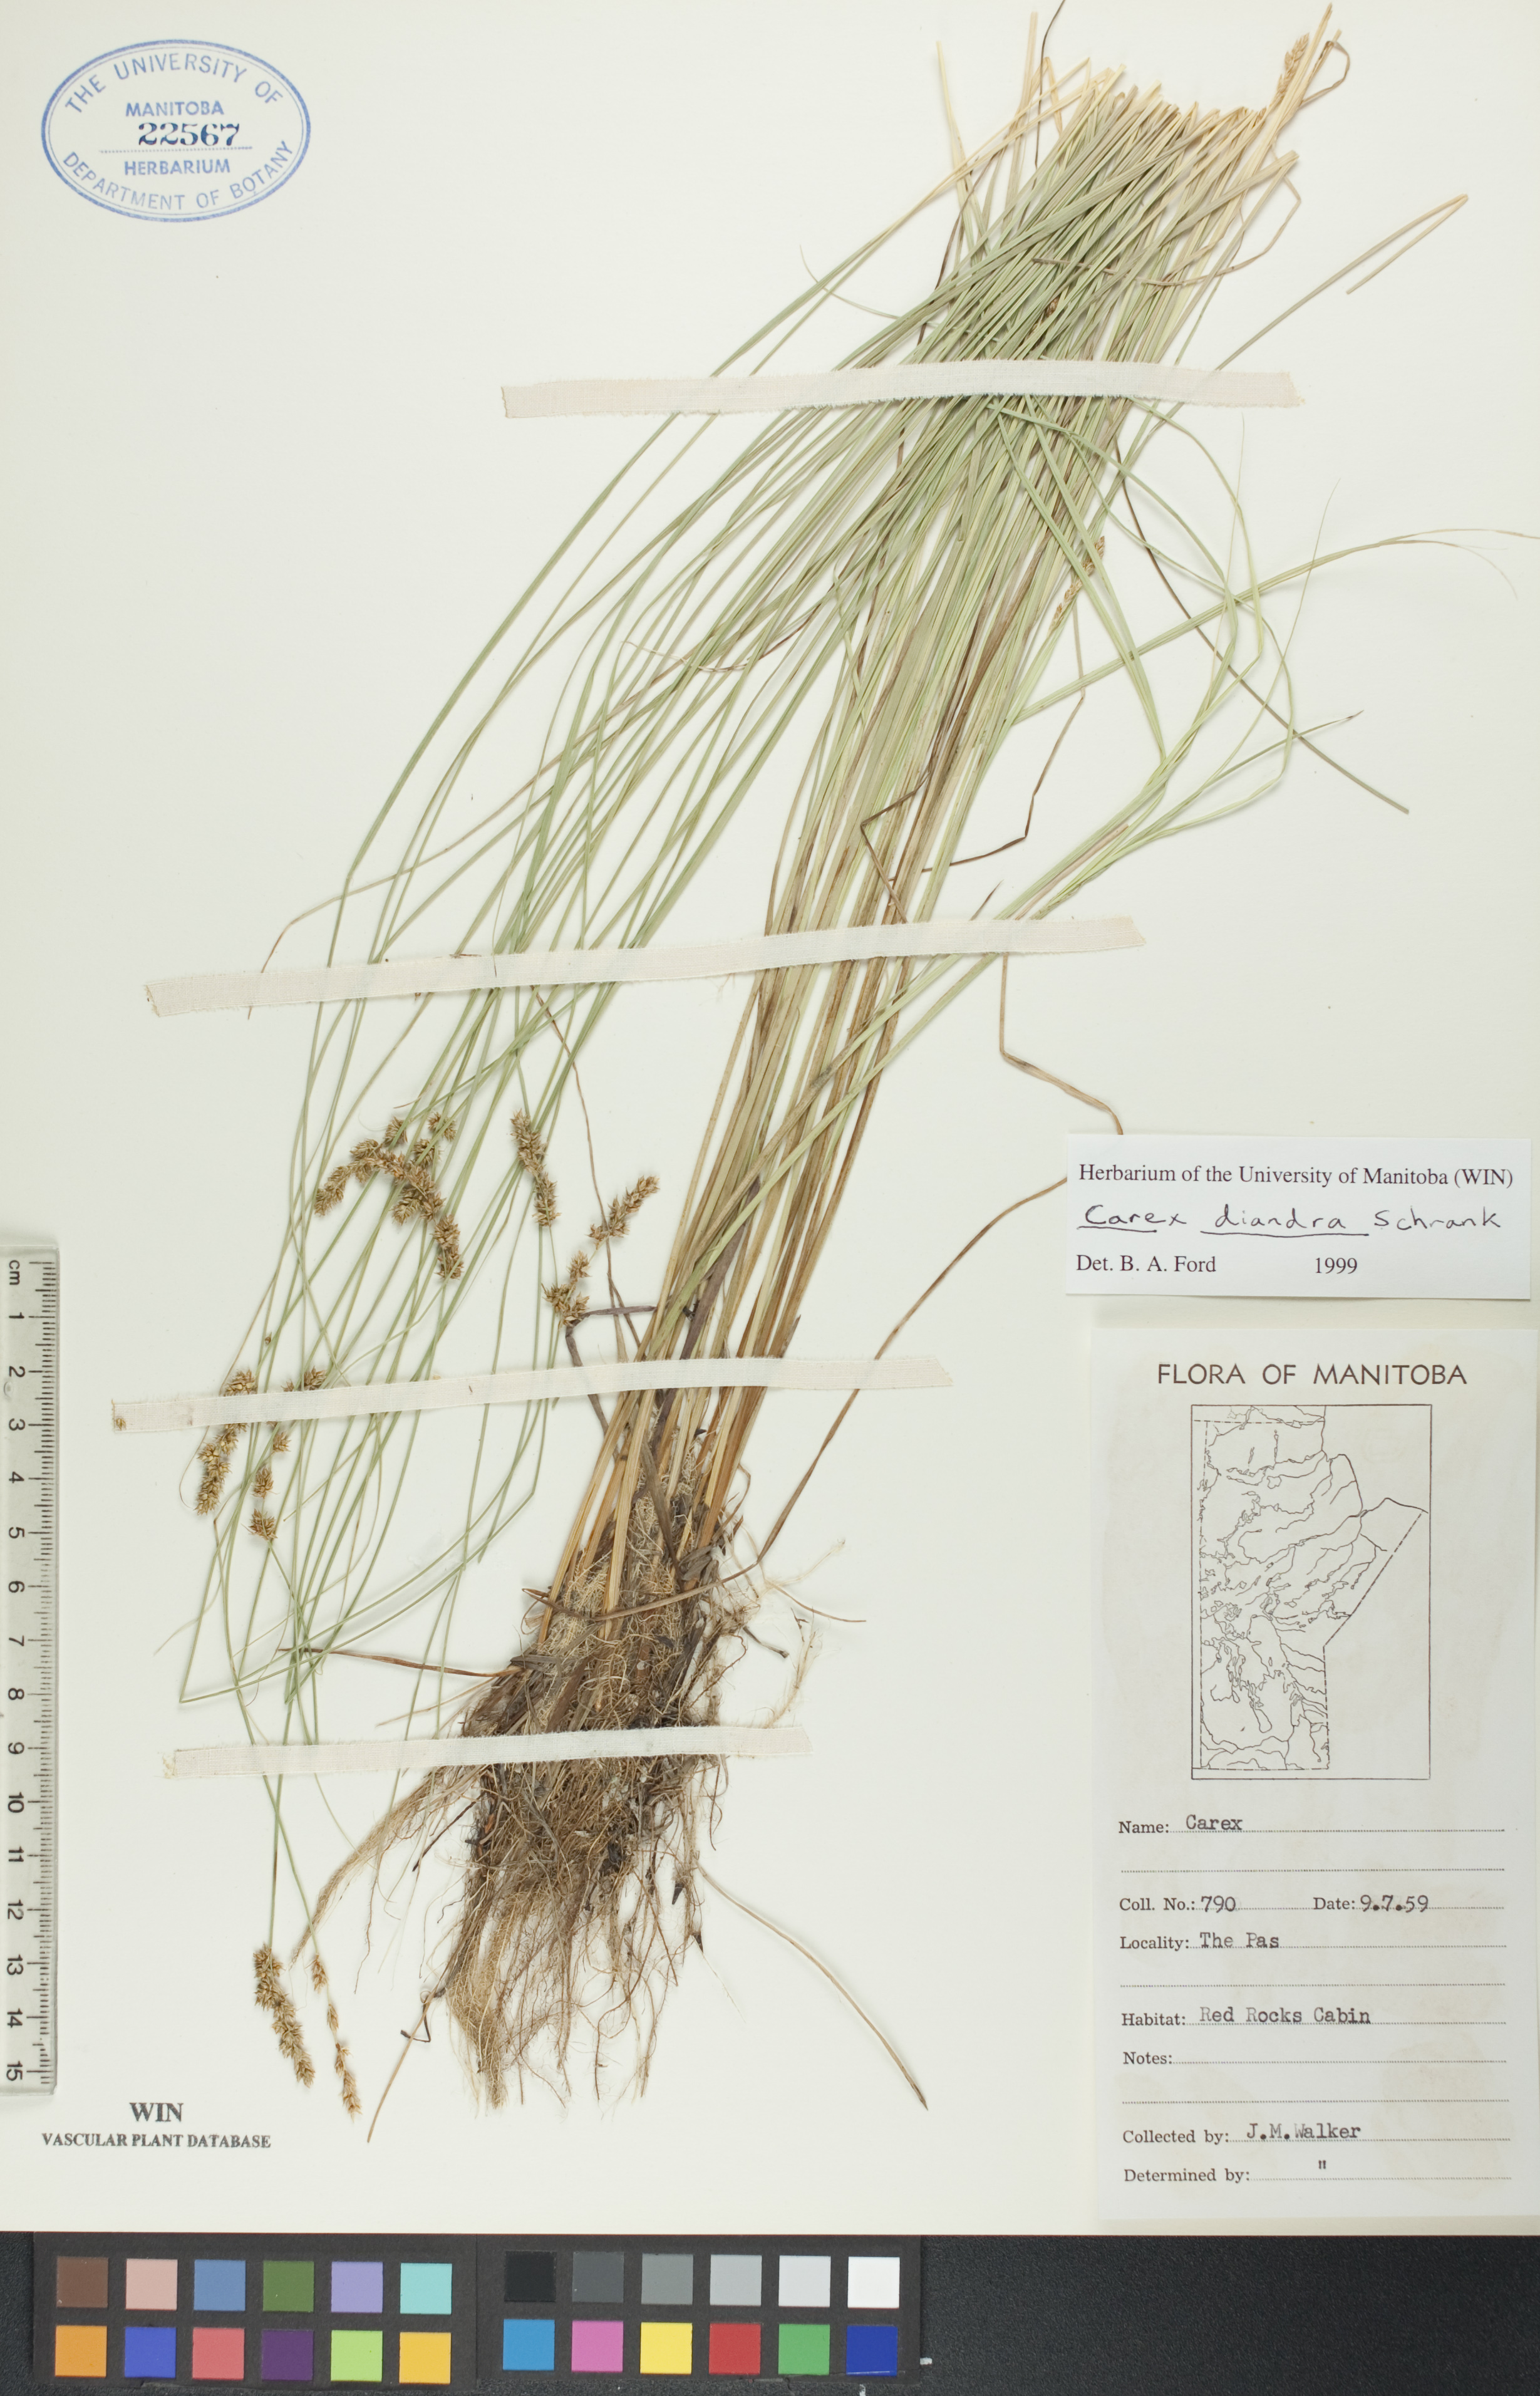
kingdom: Plantae
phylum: Tracheophyta
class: Liliopsida
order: Poales
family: Cyperaceae
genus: Carex
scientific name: Carex diandra
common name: Lesser tussock-sedge
